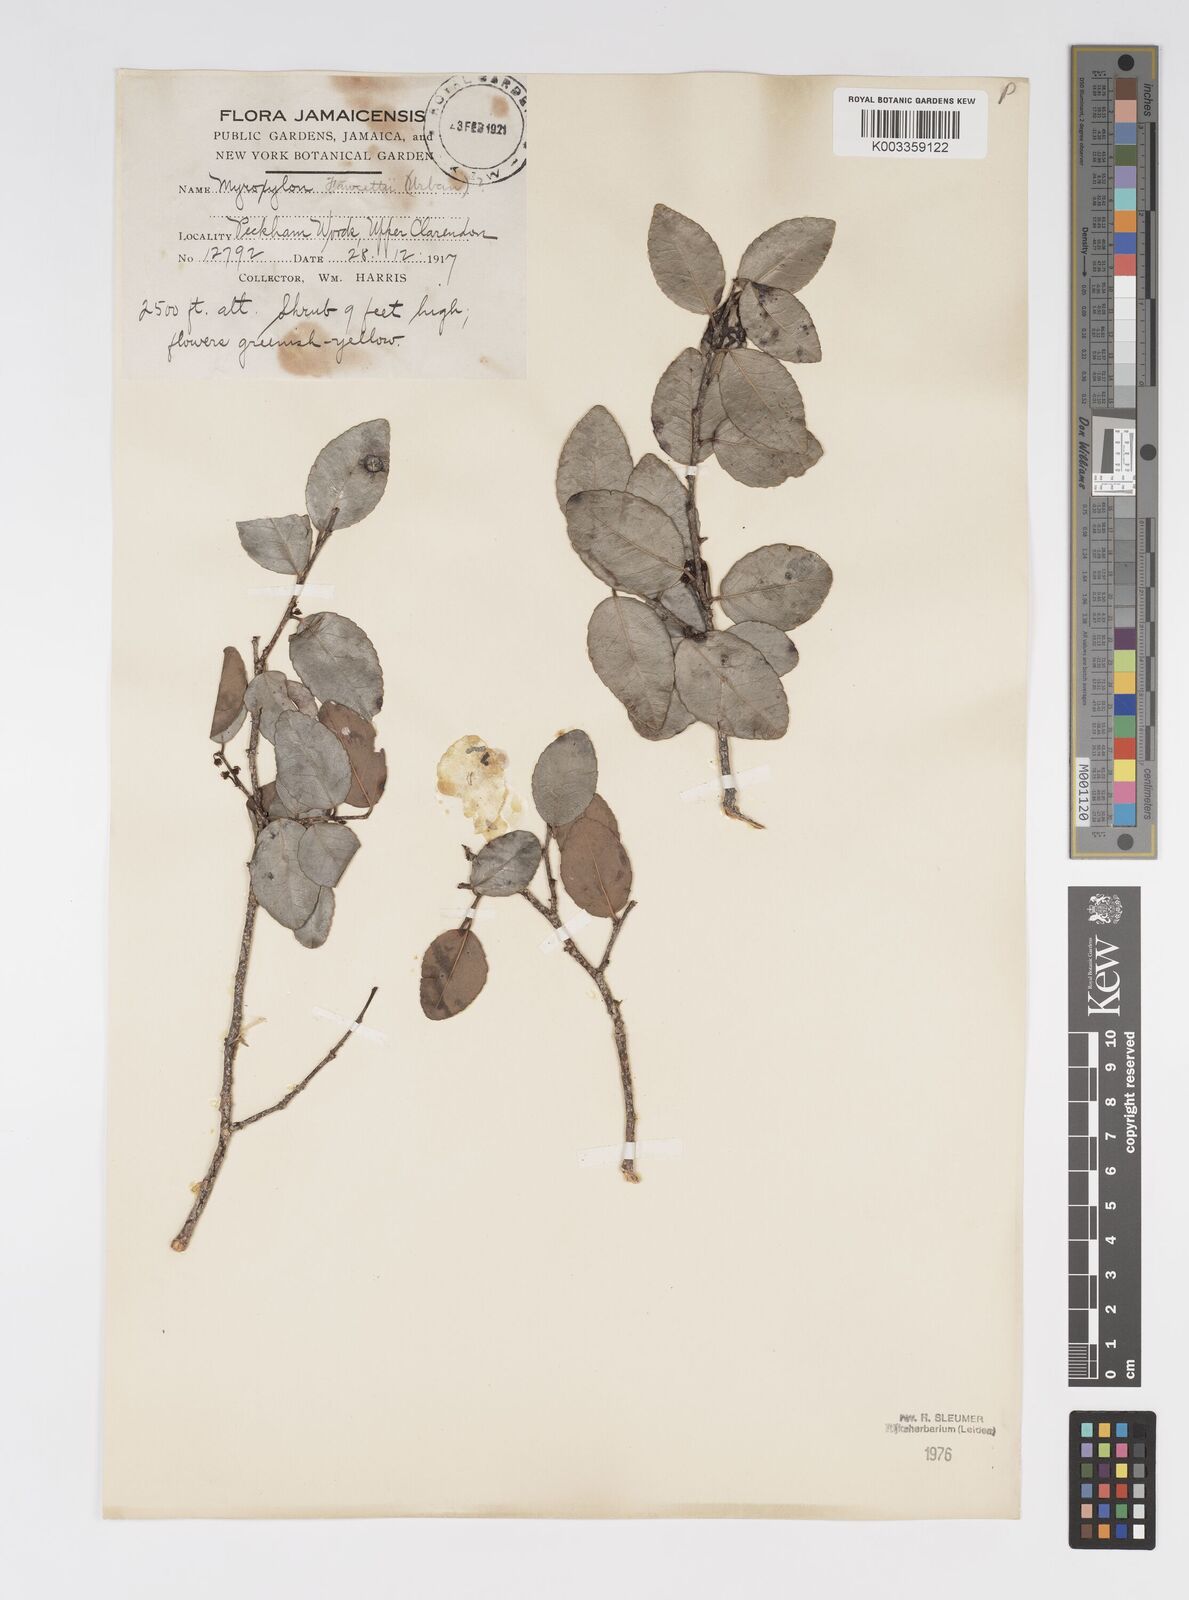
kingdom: Plantae
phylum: Tracheophyta
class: Magnoliopsida
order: Malpighiales
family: Salicaceae
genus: Xylosma
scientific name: Xylosma fawcettii
